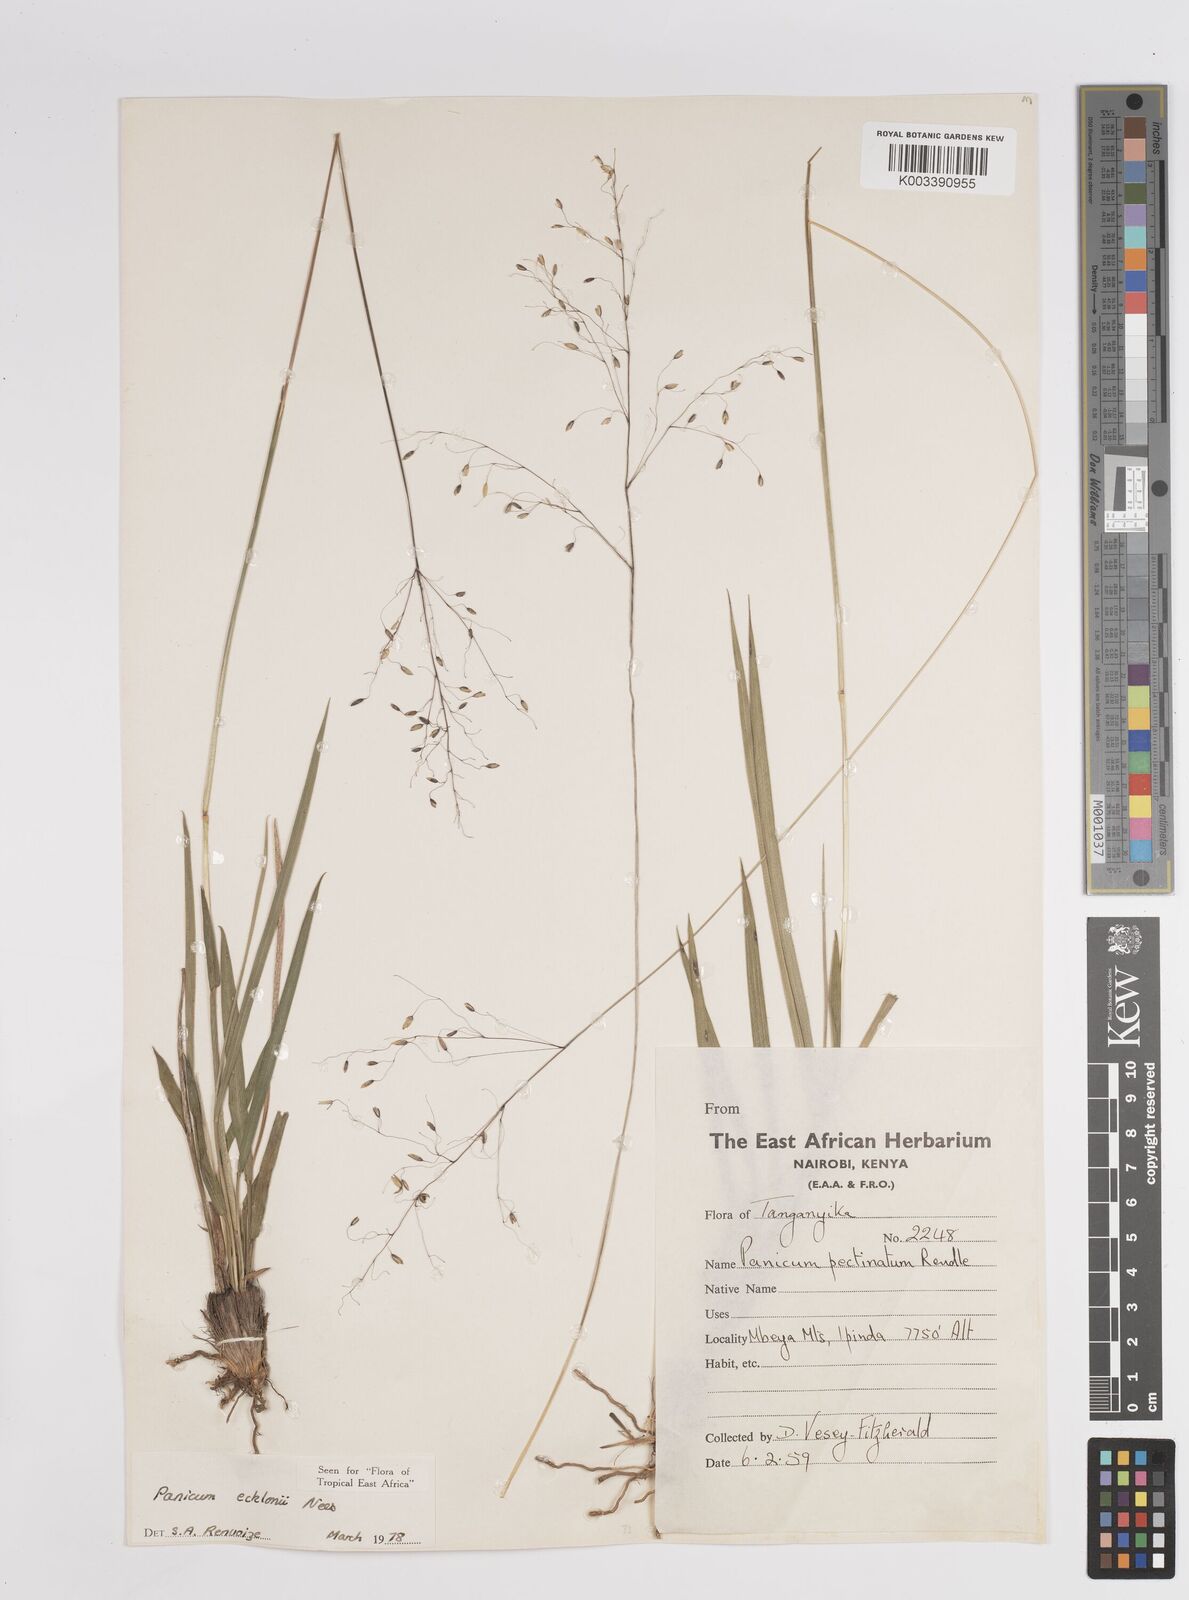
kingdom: Plantae
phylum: Tracheophyta
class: Liliopsida
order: Poales
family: Poaceae
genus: Adenochloa
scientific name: Adenochloa ecklonii
